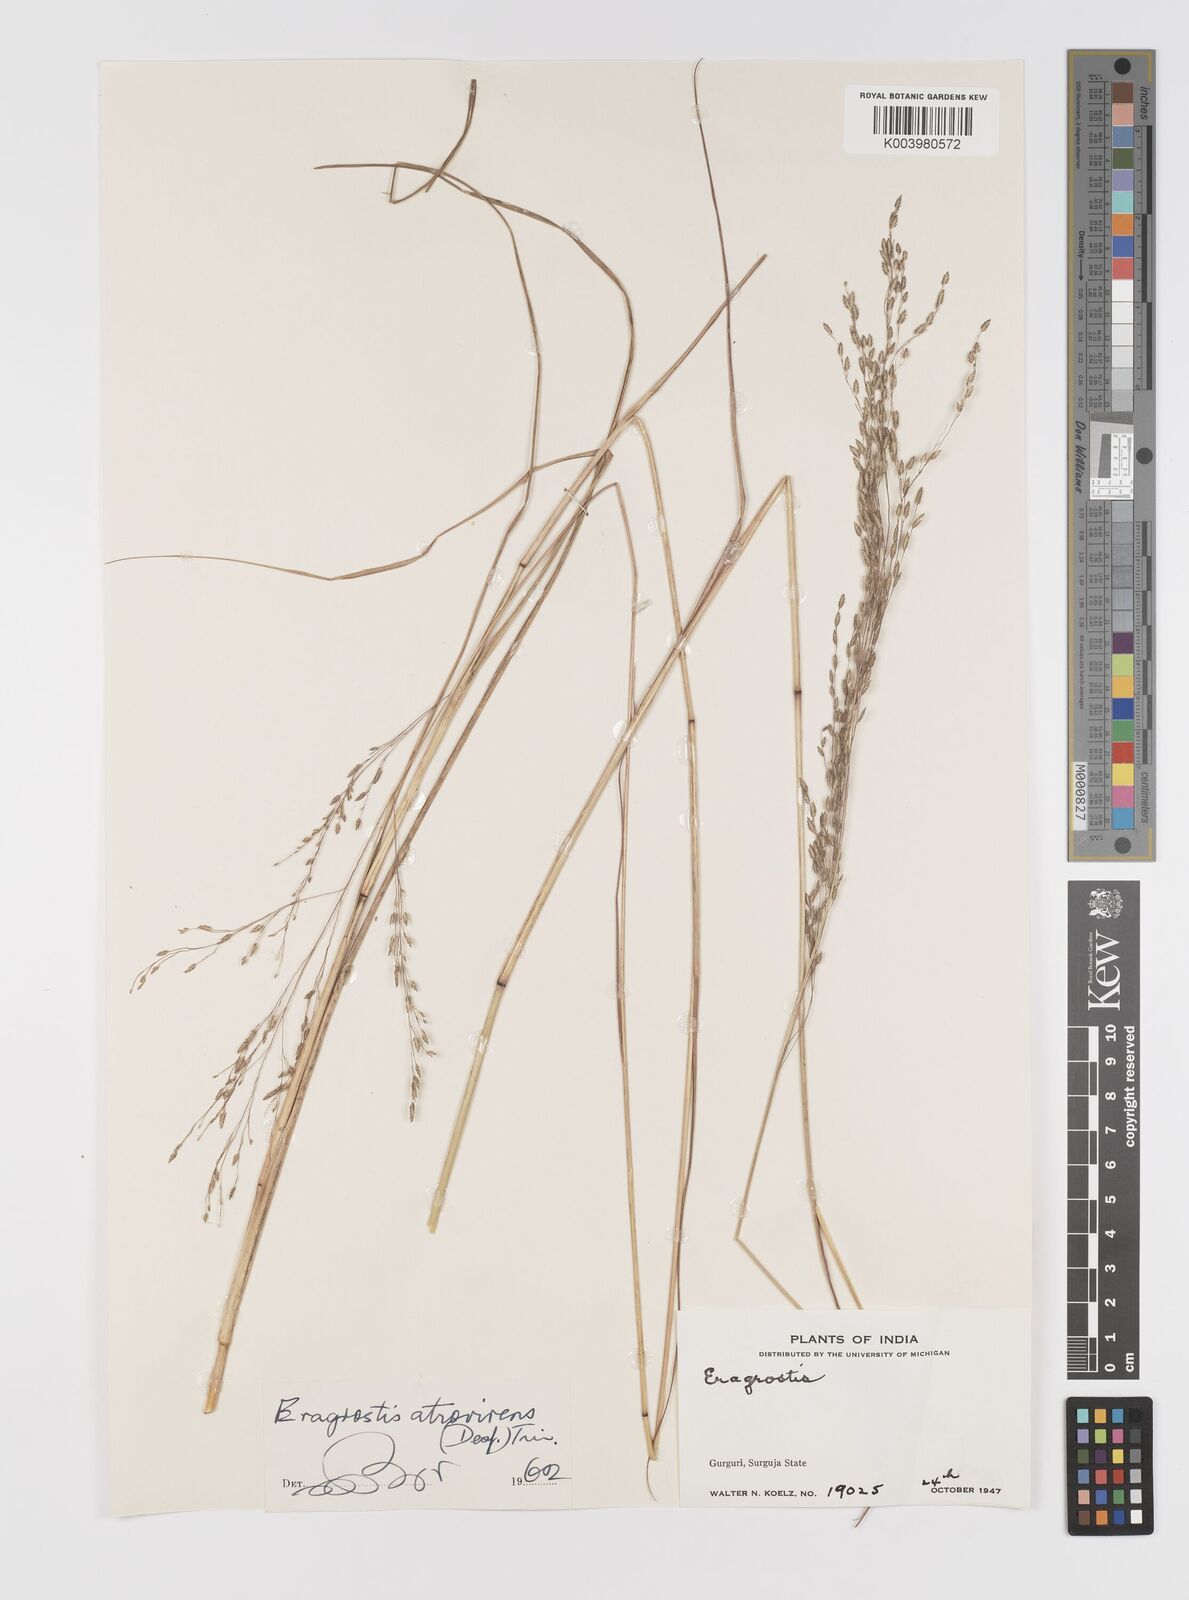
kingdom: Plantae
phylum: Tracheophyta
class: Liliopsida
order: Poales
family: Poaceae
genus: Eragrostis
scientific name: Eragrostis atrovirens
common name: Thalia lovegrass
